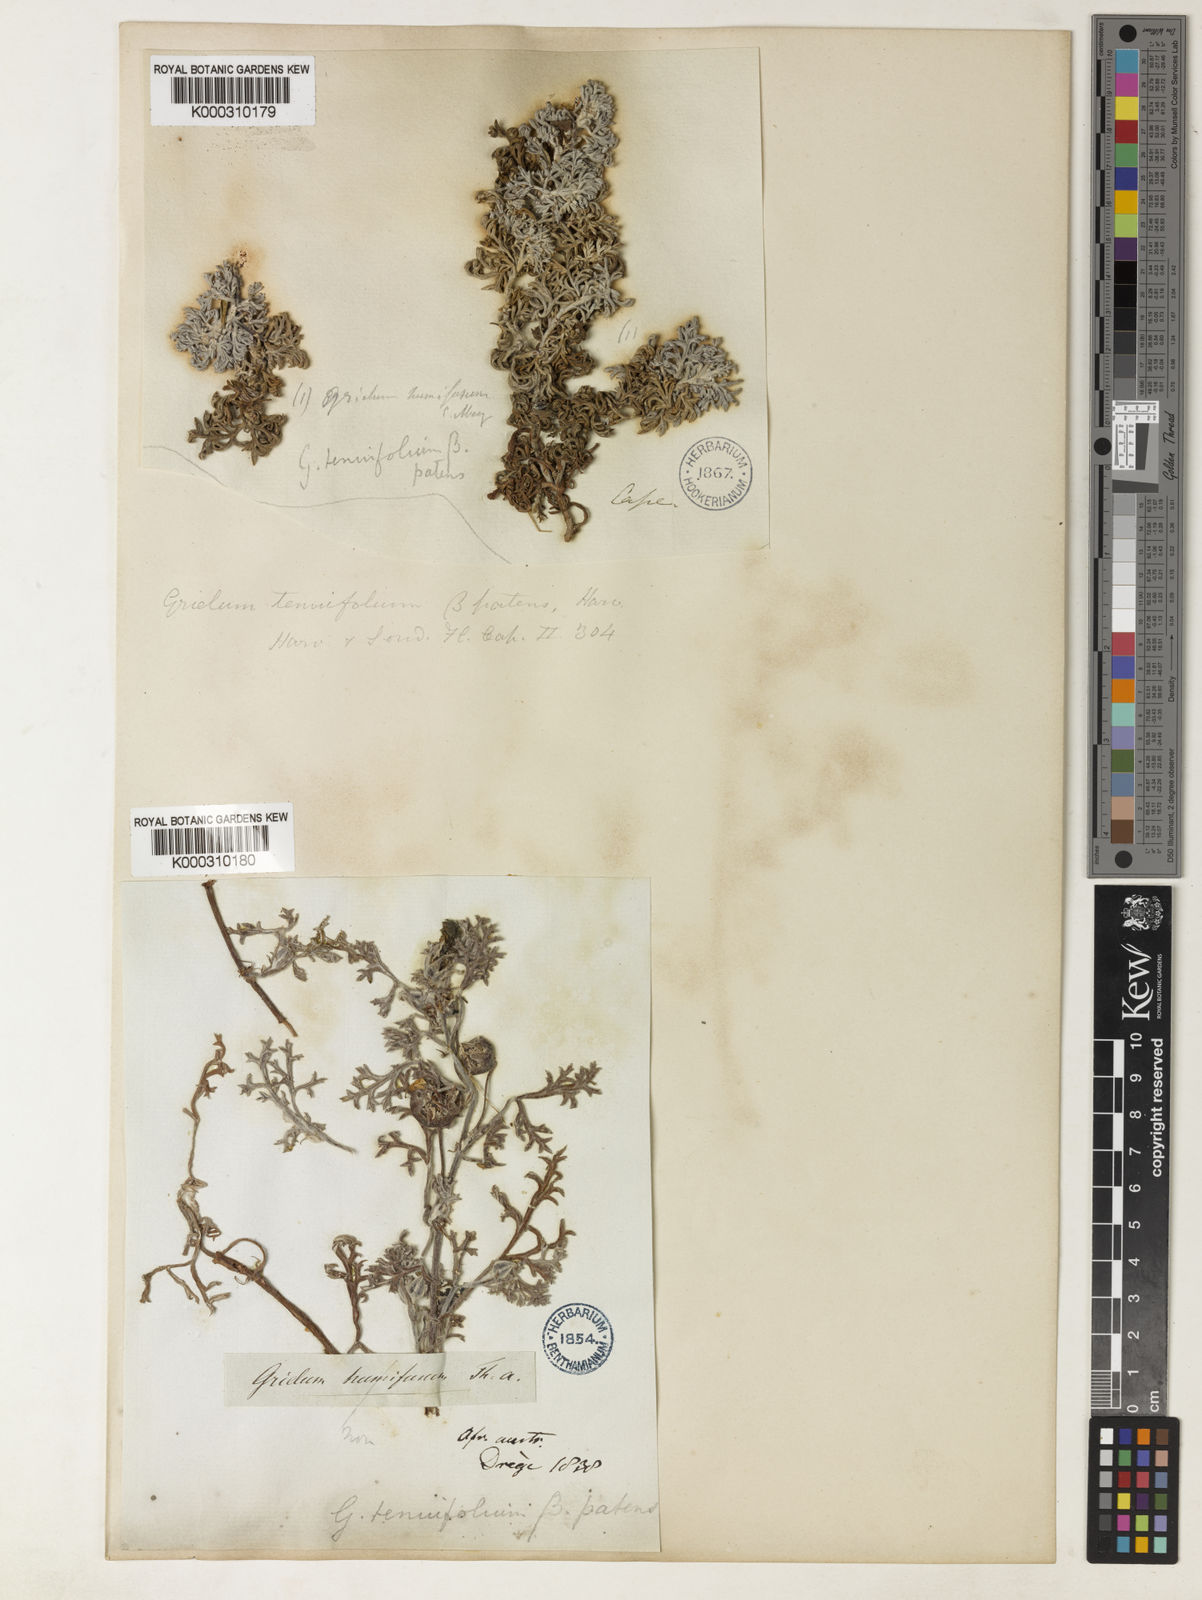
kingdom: Plantae
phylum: Tracheophyta
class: Magnoliopsida
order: Malvales
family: Neuradaceae
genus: Grielum
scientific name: Grielum grandiflorum
